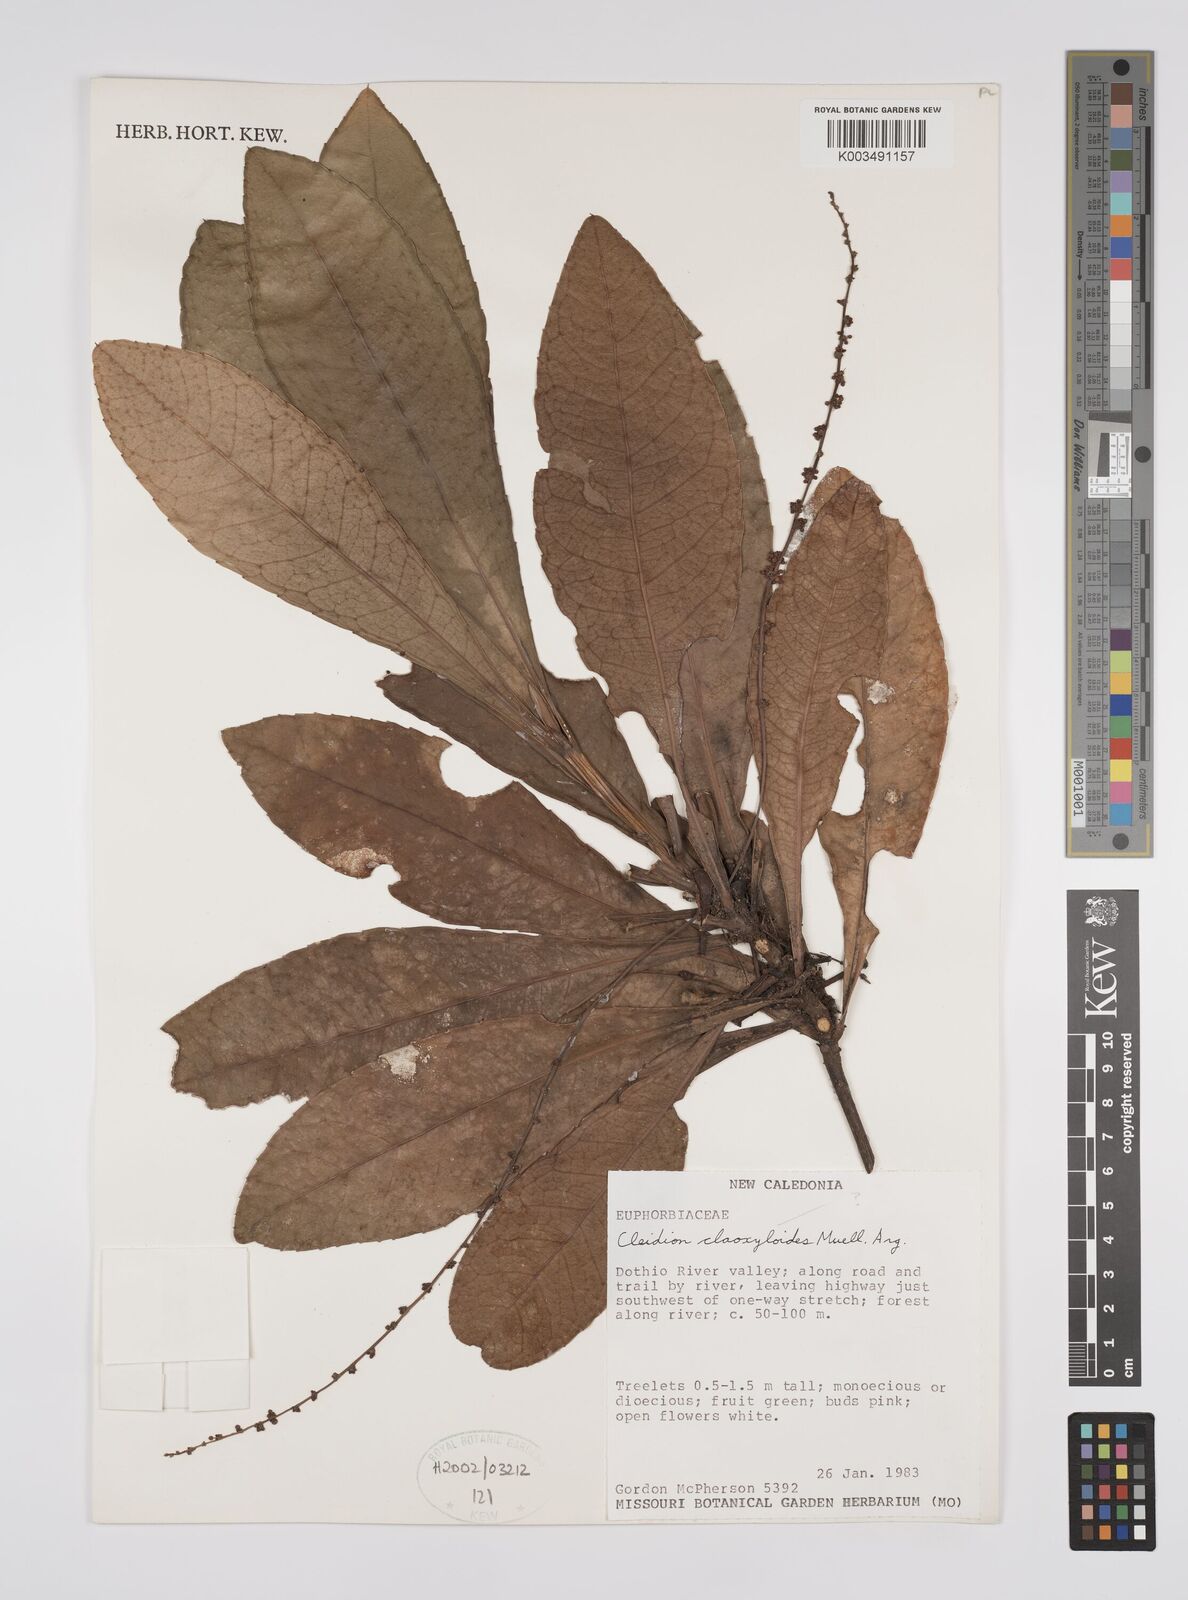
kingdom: Plantae
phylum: Tracheophyta
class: Magnoliopsida
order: Malpighiales
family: Euphorbiaceae
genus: Cleidion
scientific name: Cleidion claoxyloides
